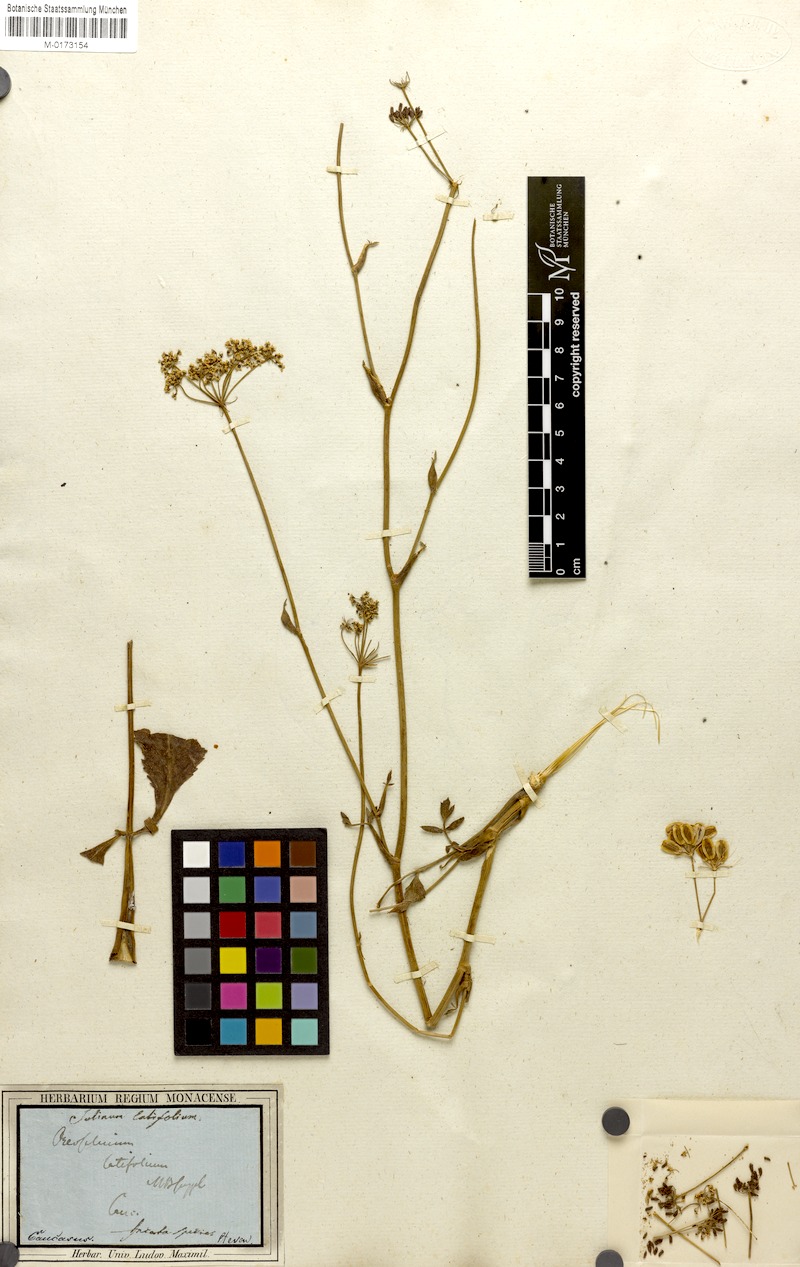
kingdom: Plantae
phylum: Tracheophyta
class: Magnoliopsida
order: Apiales
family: Apiaceae
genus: Macroselinum
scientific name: Macroselinum latifolium
